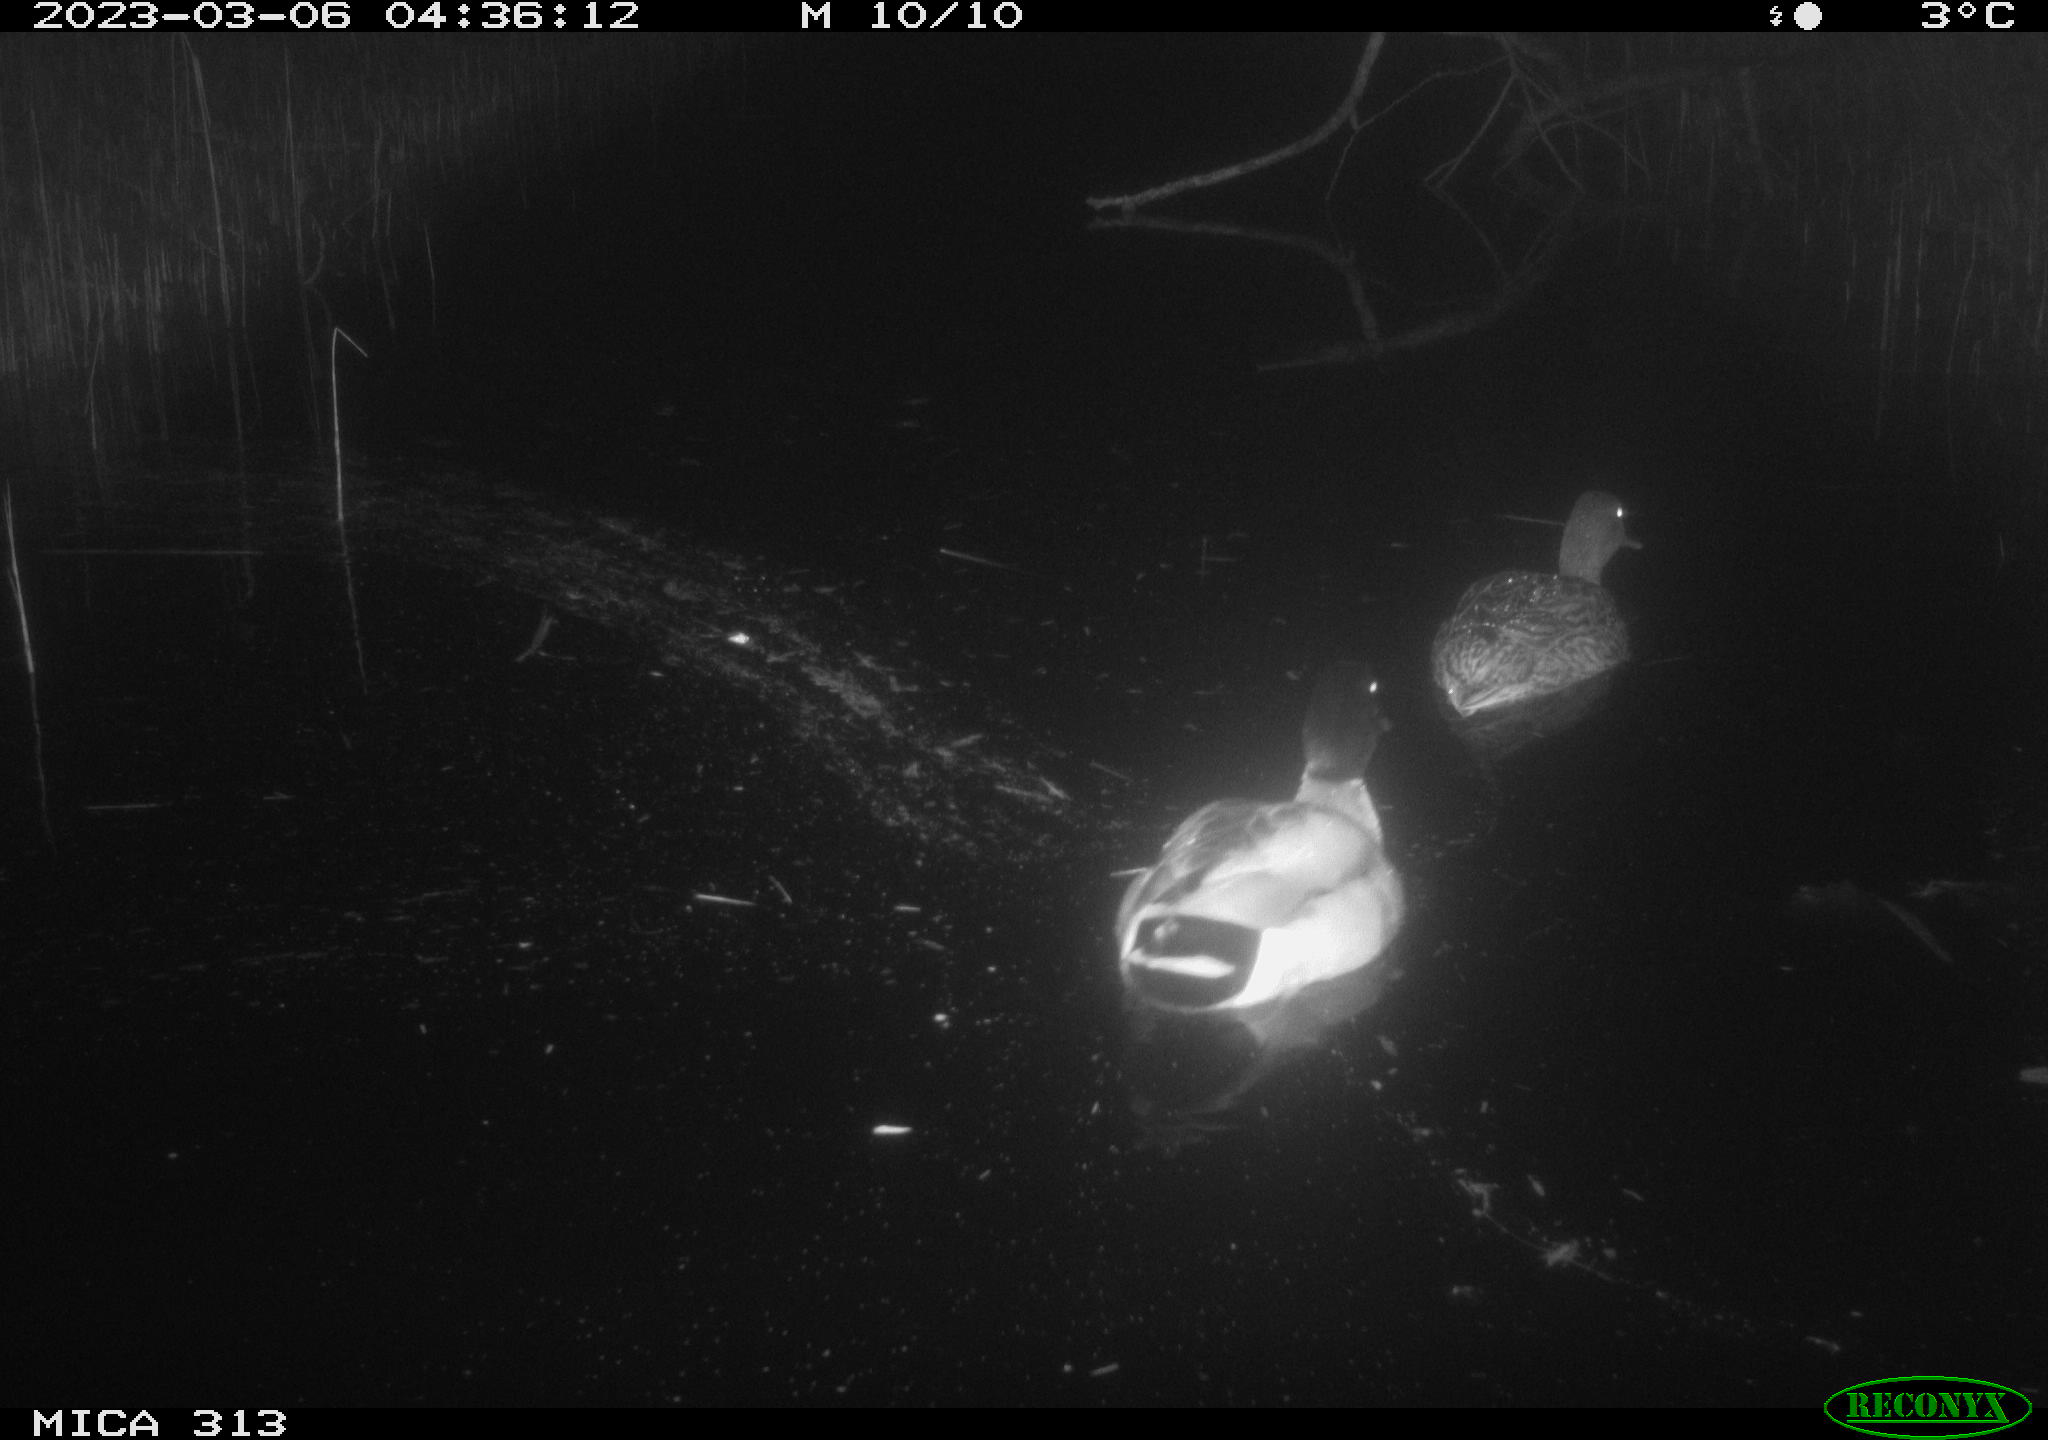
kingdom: Animalia
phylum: Chordata
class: Aves
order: Anseriformes
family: Anatidae
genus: Anas
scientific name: Anas
